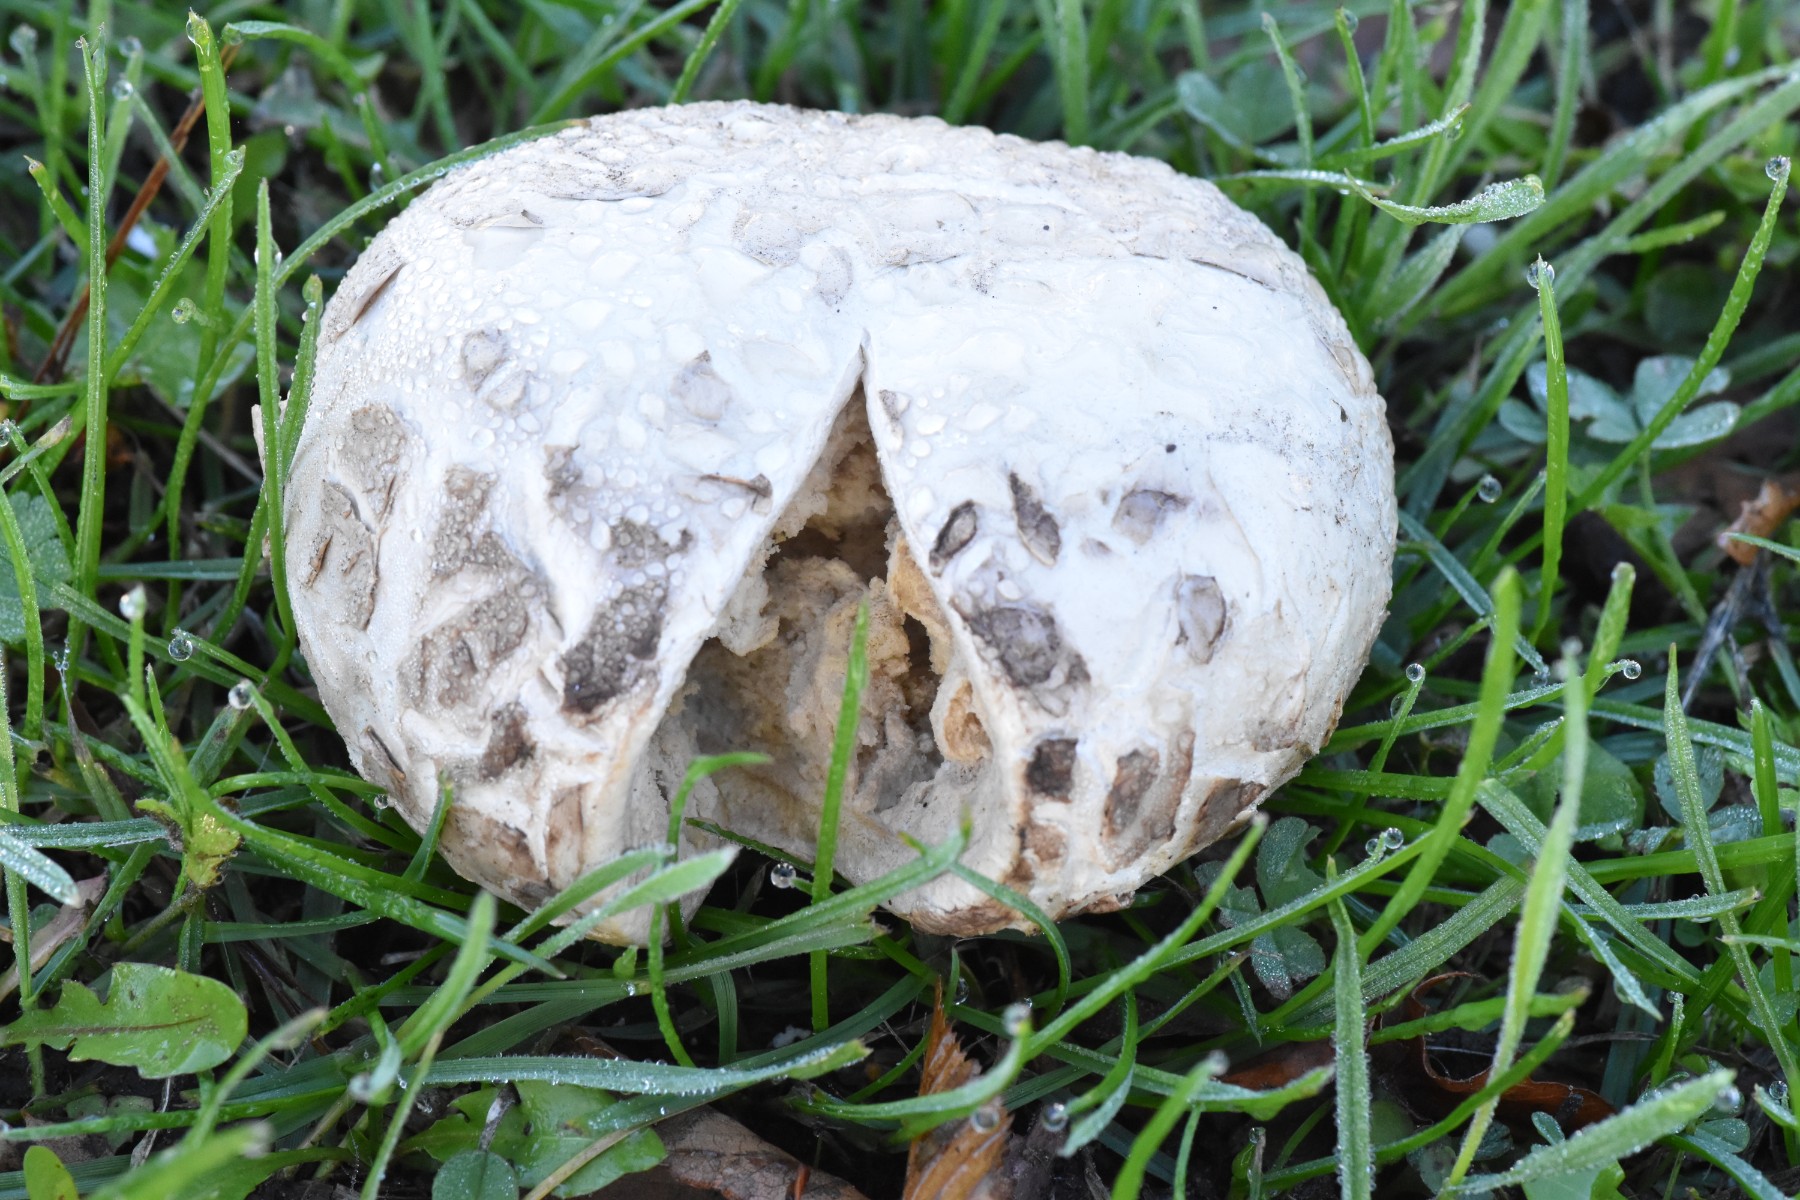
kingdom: Fungi
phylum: Basidiomycota
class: Agaricomycetes
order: Agaricales
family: Agaricaceae
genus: Mycenastrum
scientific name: Mycenastrum corium
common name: læderbold
